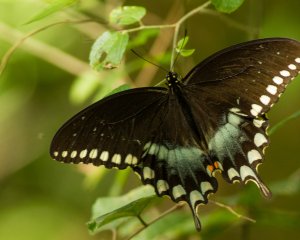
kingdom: Animalia
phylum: Arthropoda
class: Insecta
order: Lepidoptera
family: Papilionidae
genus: Pterourus
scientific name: Pterourus troilus
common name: Spicebush Swallowtail
